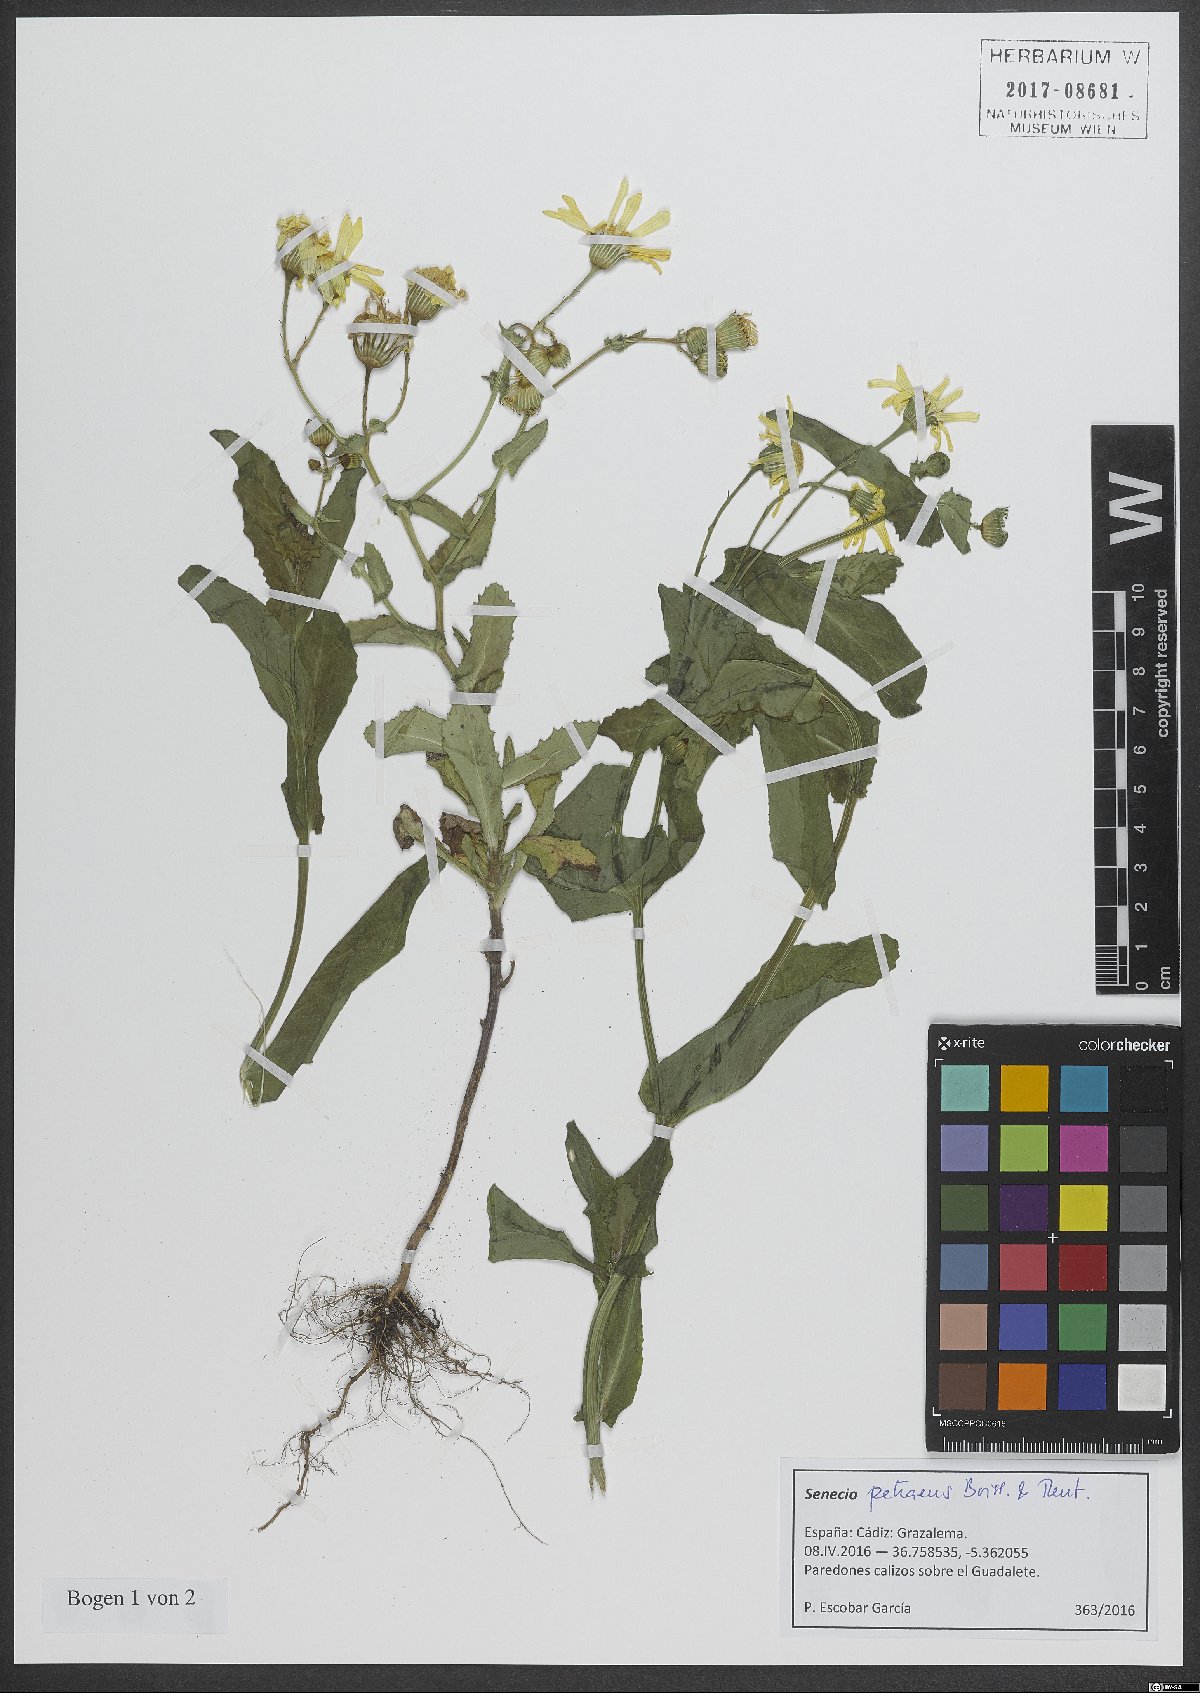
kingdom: Plantae
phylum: Tracheophyta
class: Magnoliopsida
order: Asterales
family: Asteraceae
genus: Senecio
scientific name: Senecio petraeus
